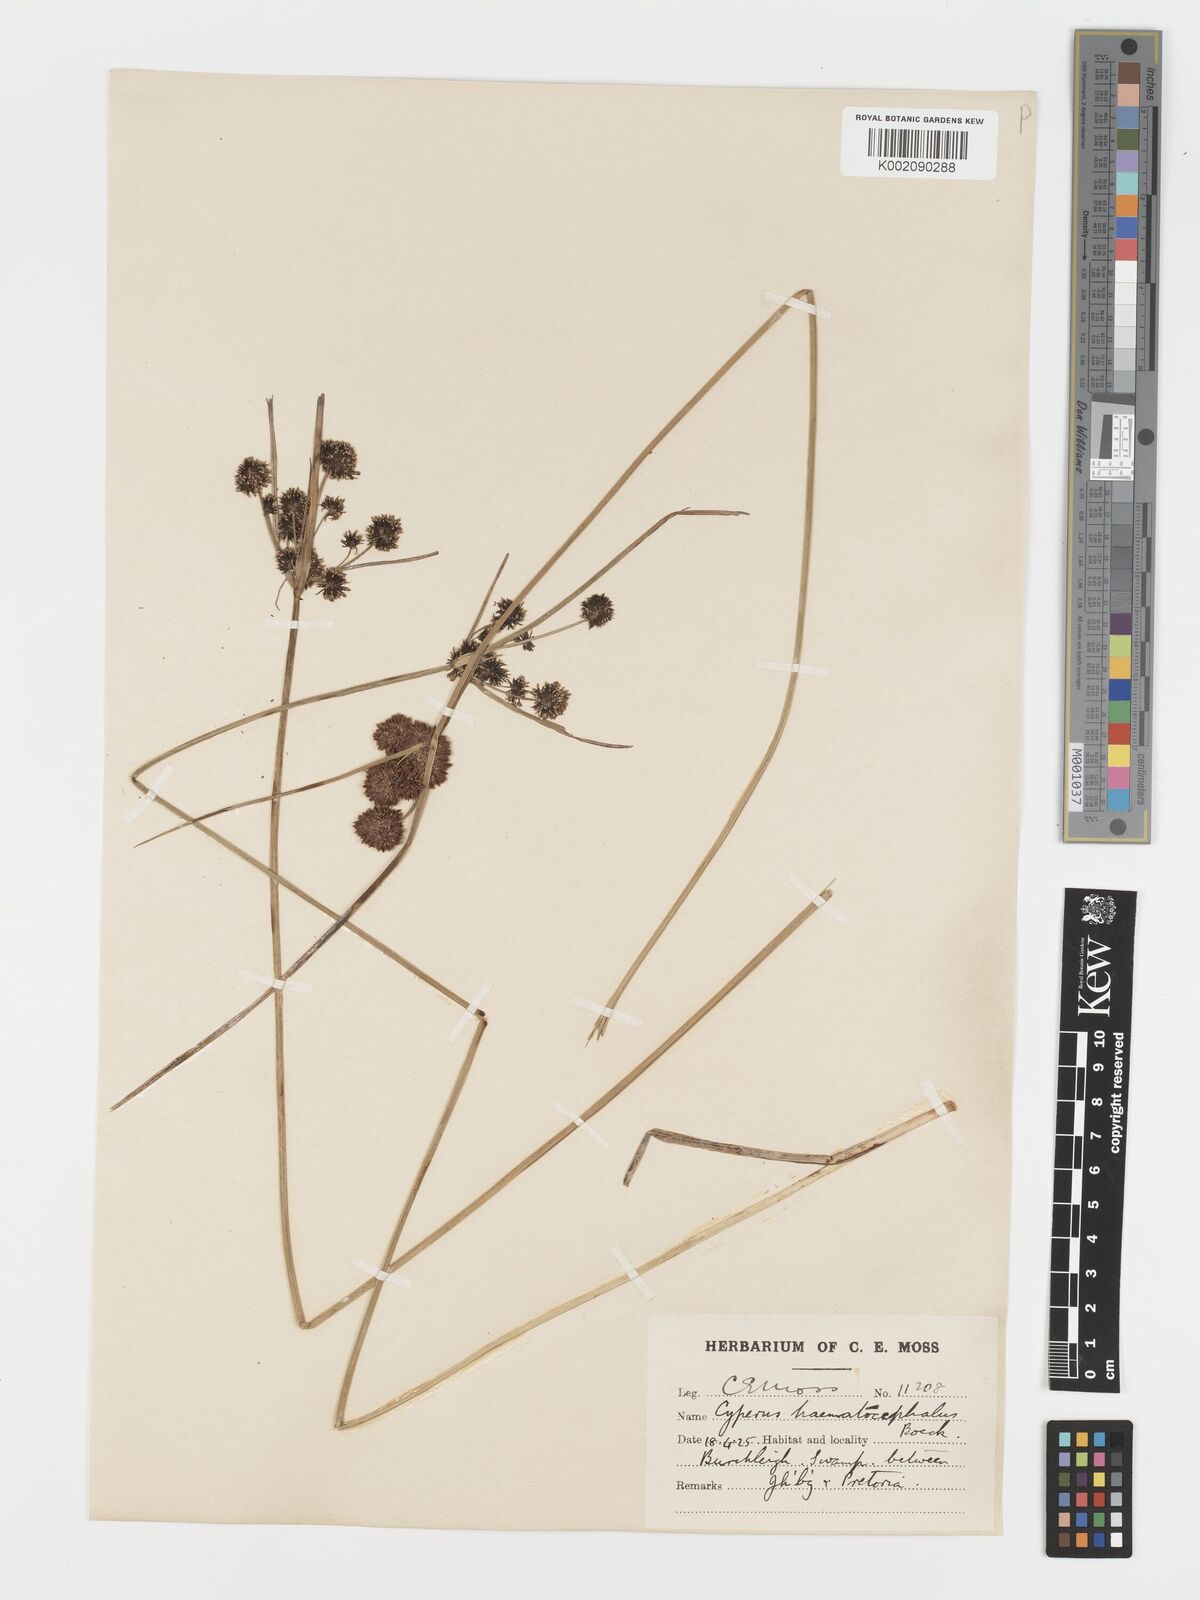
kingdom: Plantae
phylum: Tracheophyta
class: Liliopsida
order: Poales
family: Cyperaceae
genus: Cyperus
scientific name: Cyperus haematocephalus
